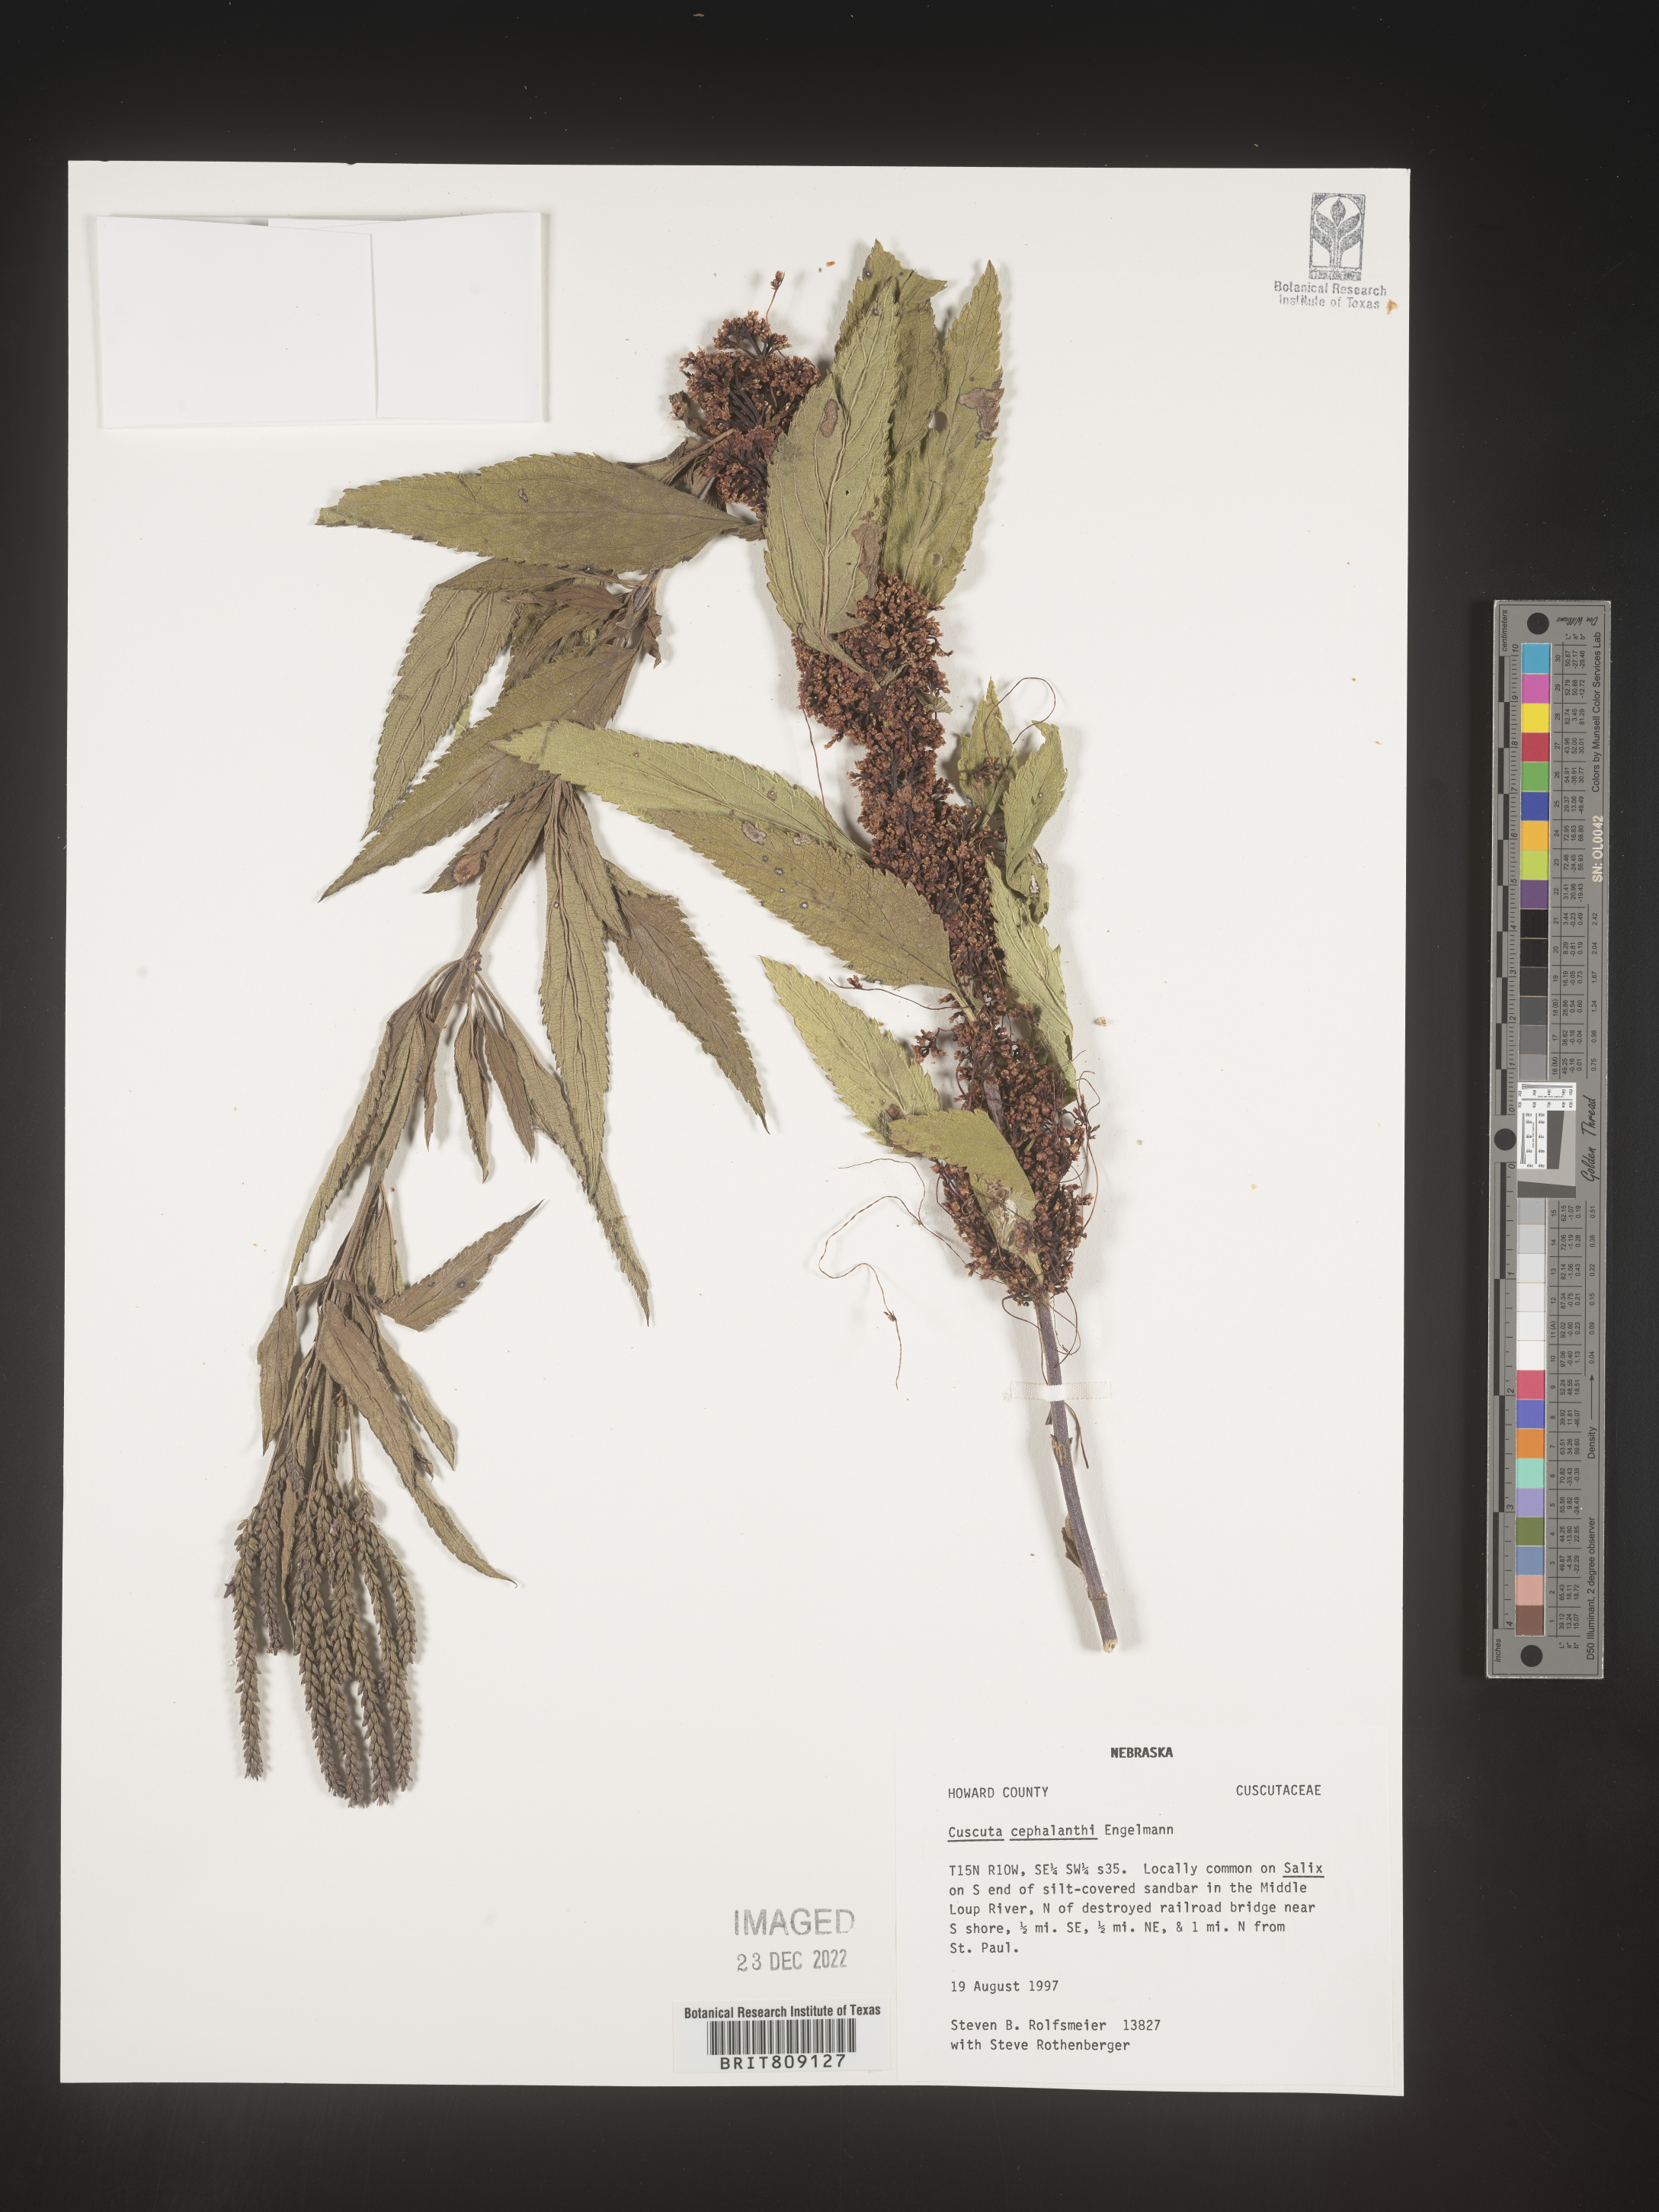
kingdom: Plantae
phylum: Tracheophyta
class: Magnoliopsida
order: Solanales
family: Convolvulaceae
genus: Cuscuta
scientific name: Cuscuta cephalanthi
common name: Button dodder
